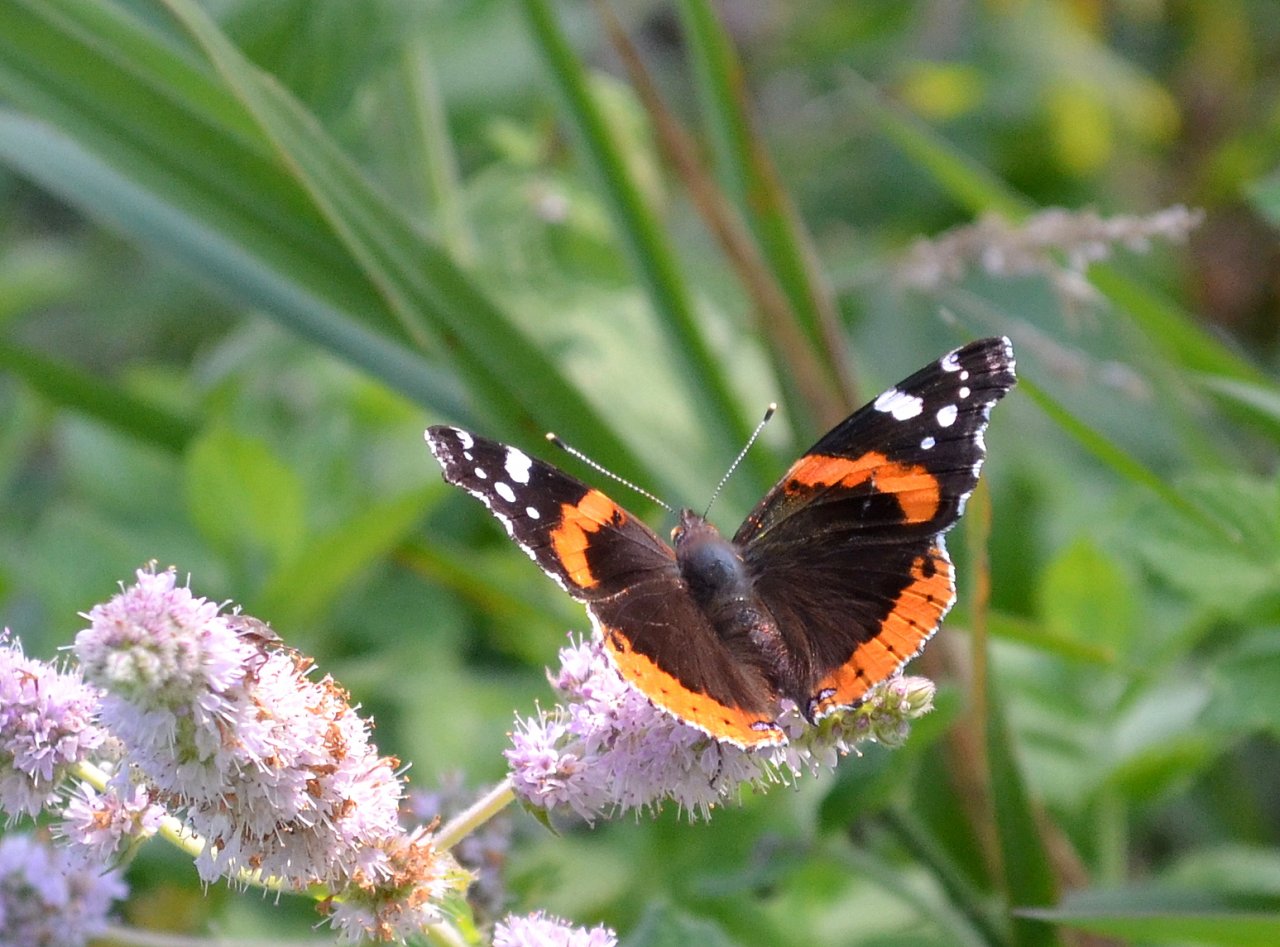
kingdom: Animalia
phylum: Arthropoda
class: Insecta
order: Lepidoptera
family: Nymphalidae
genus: Vanessa
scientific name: Vanessa atalanta
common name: Red Admiral
